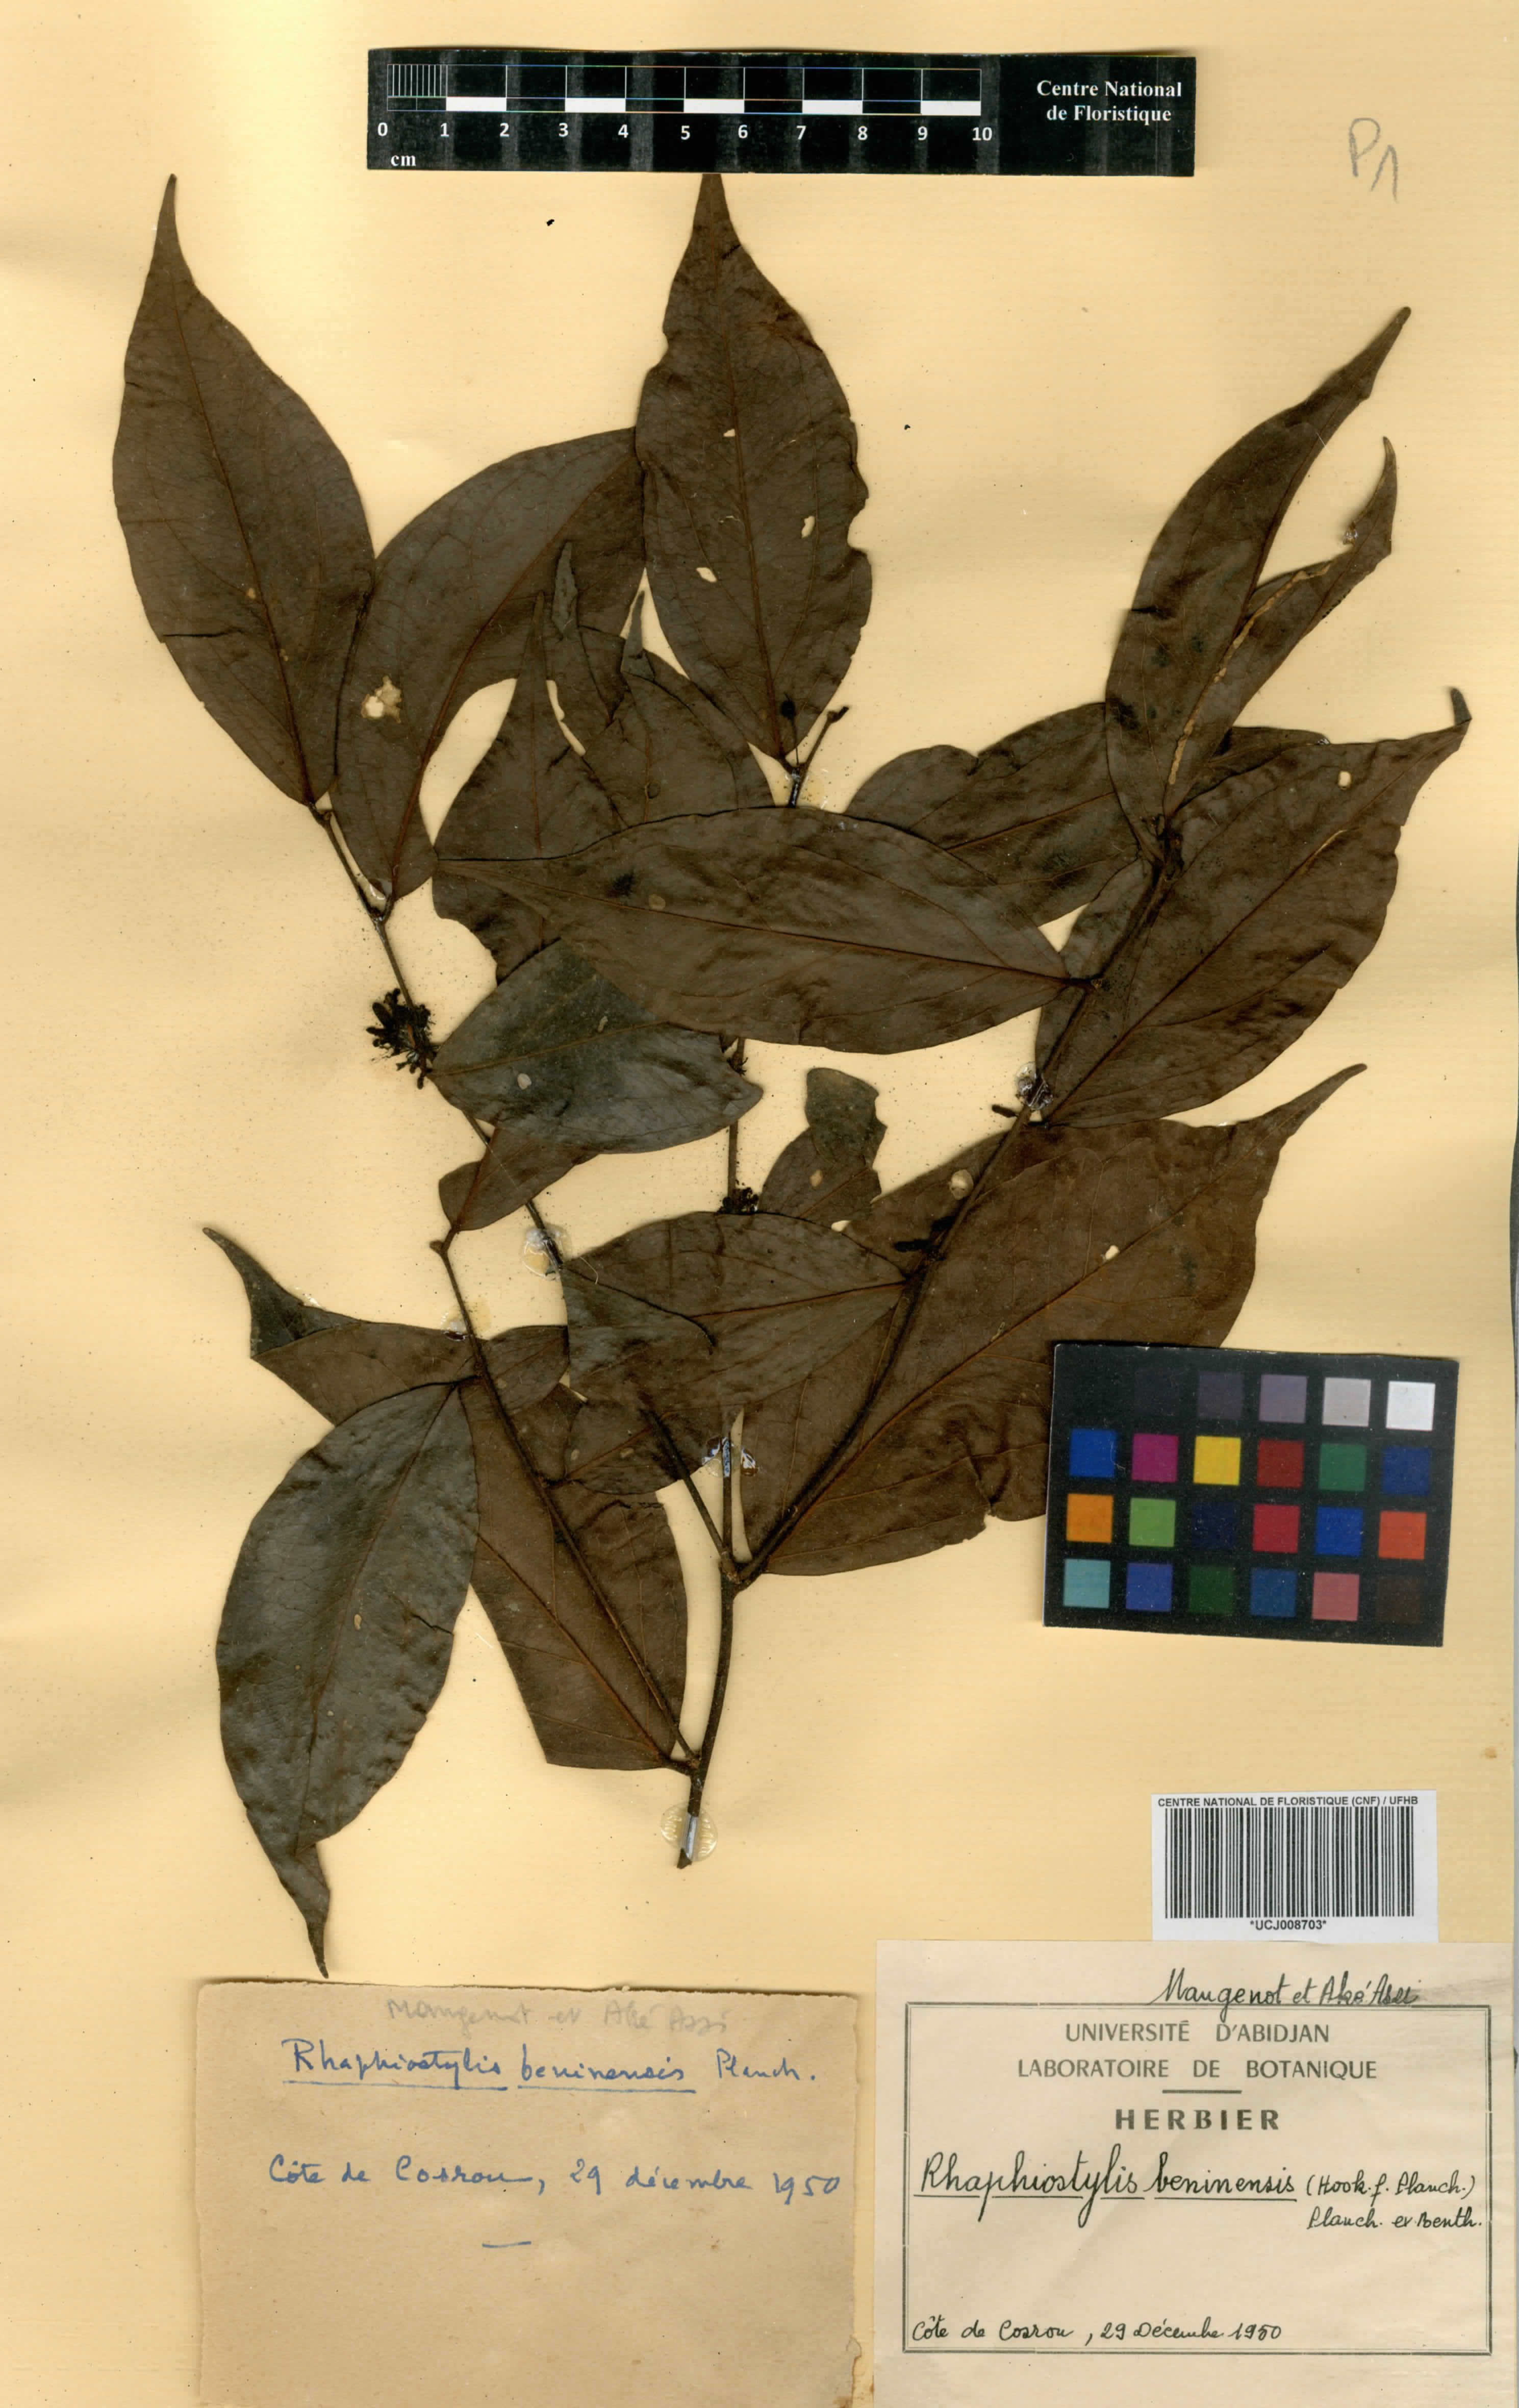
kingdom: Plantae
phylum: Tracheophyta
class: Magnoliopsida
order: Metteniusales
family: Metteniusaceae
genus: Rhaphiostylis
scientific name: Rhaphiostylis beninensis
